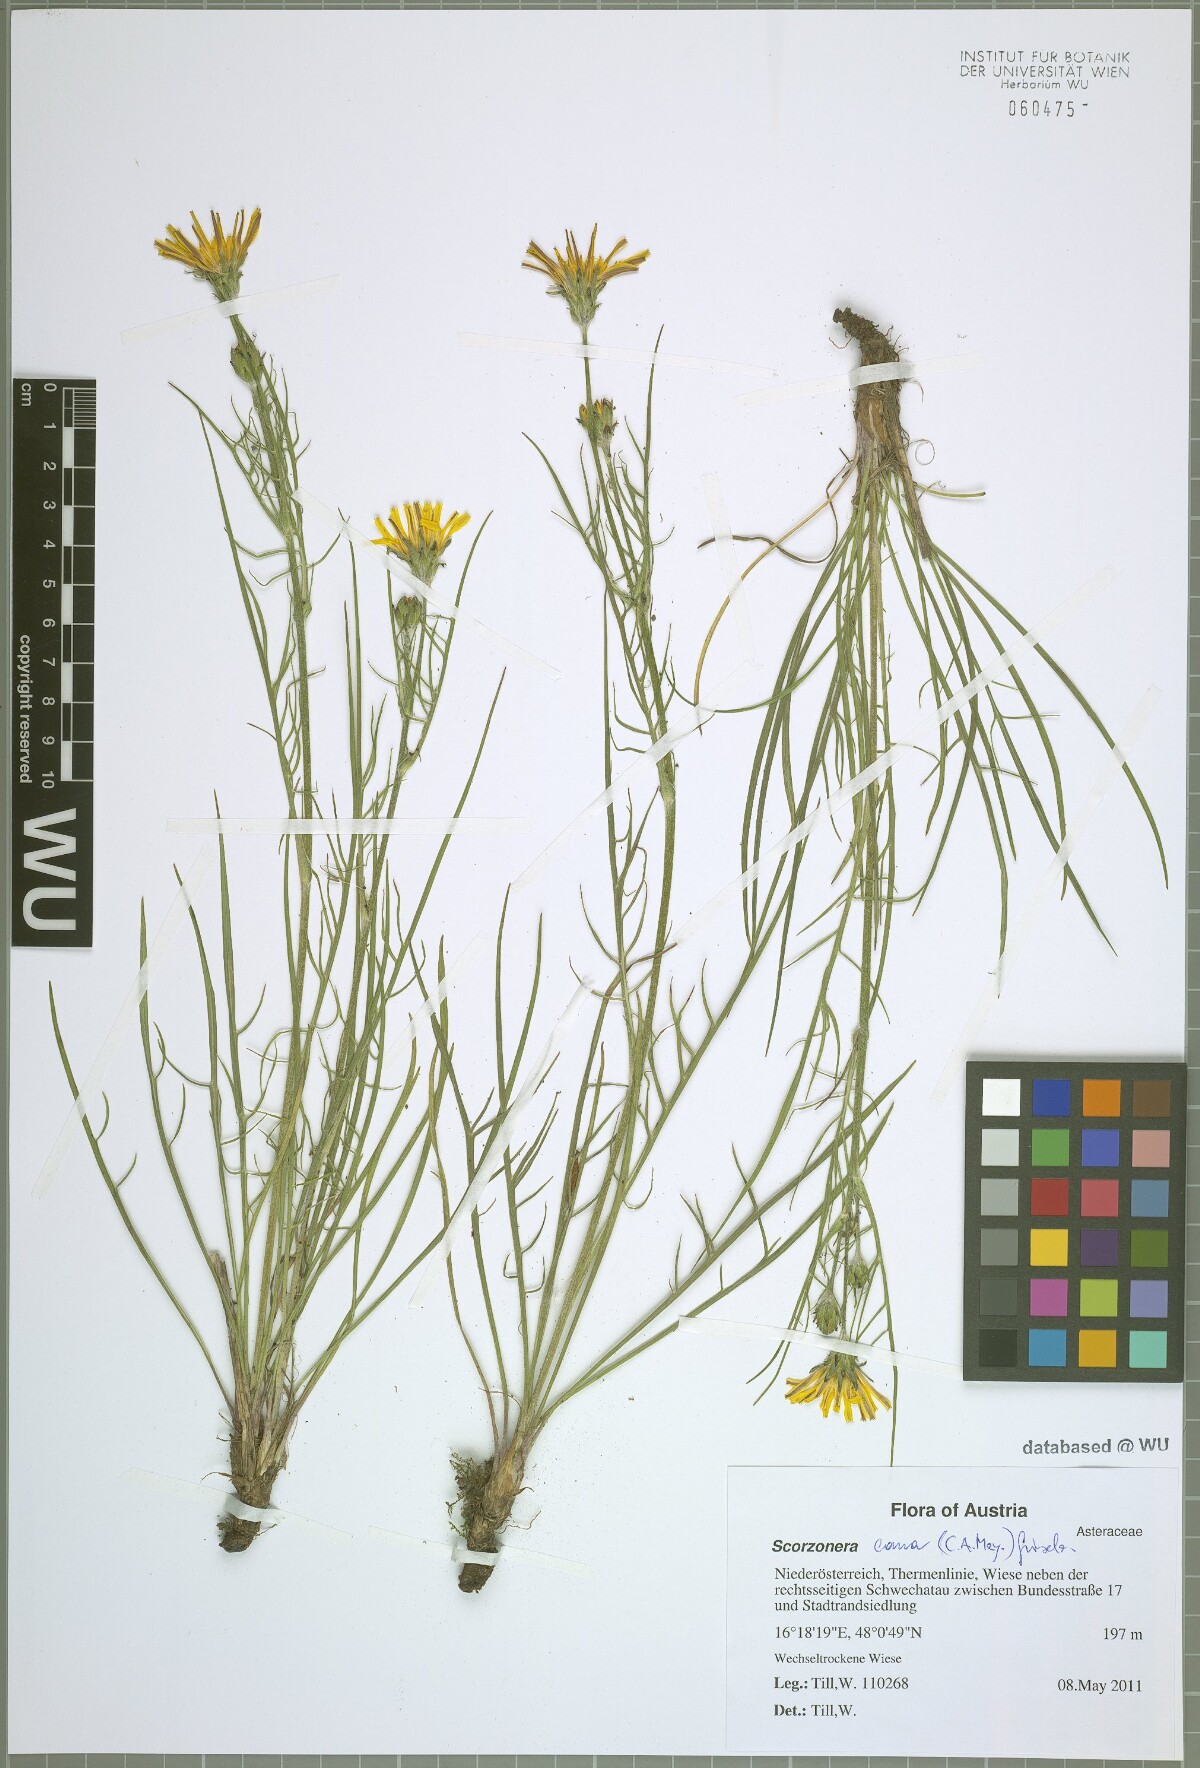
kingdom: Plantae
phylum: Tracheophyta
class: Magnoliopsida
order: Asterales
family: Asteraceae
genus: Scorzonera
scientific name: Scorzonera cana
